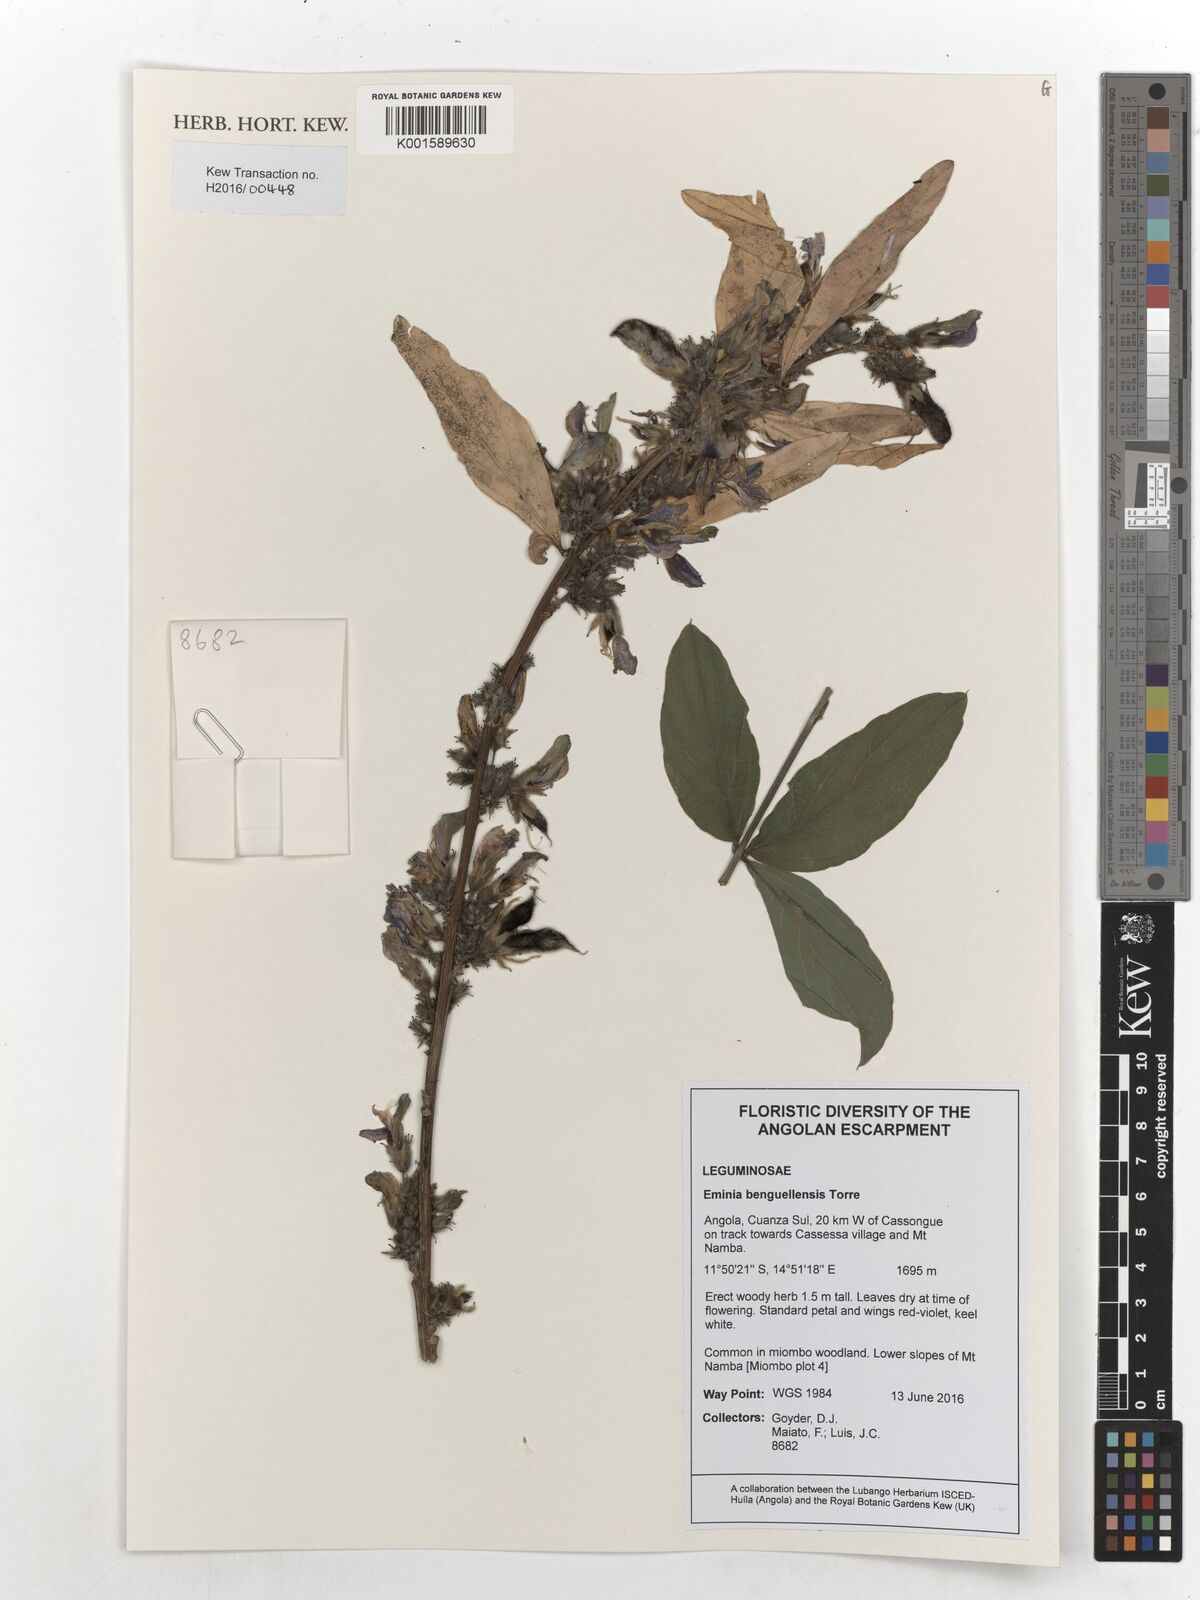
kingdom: Plantae
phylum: Tracheophyta
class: Magnoliopsida
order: Fabales
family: Fabaceae
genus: Eminia
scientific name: Eminia benguellensis
